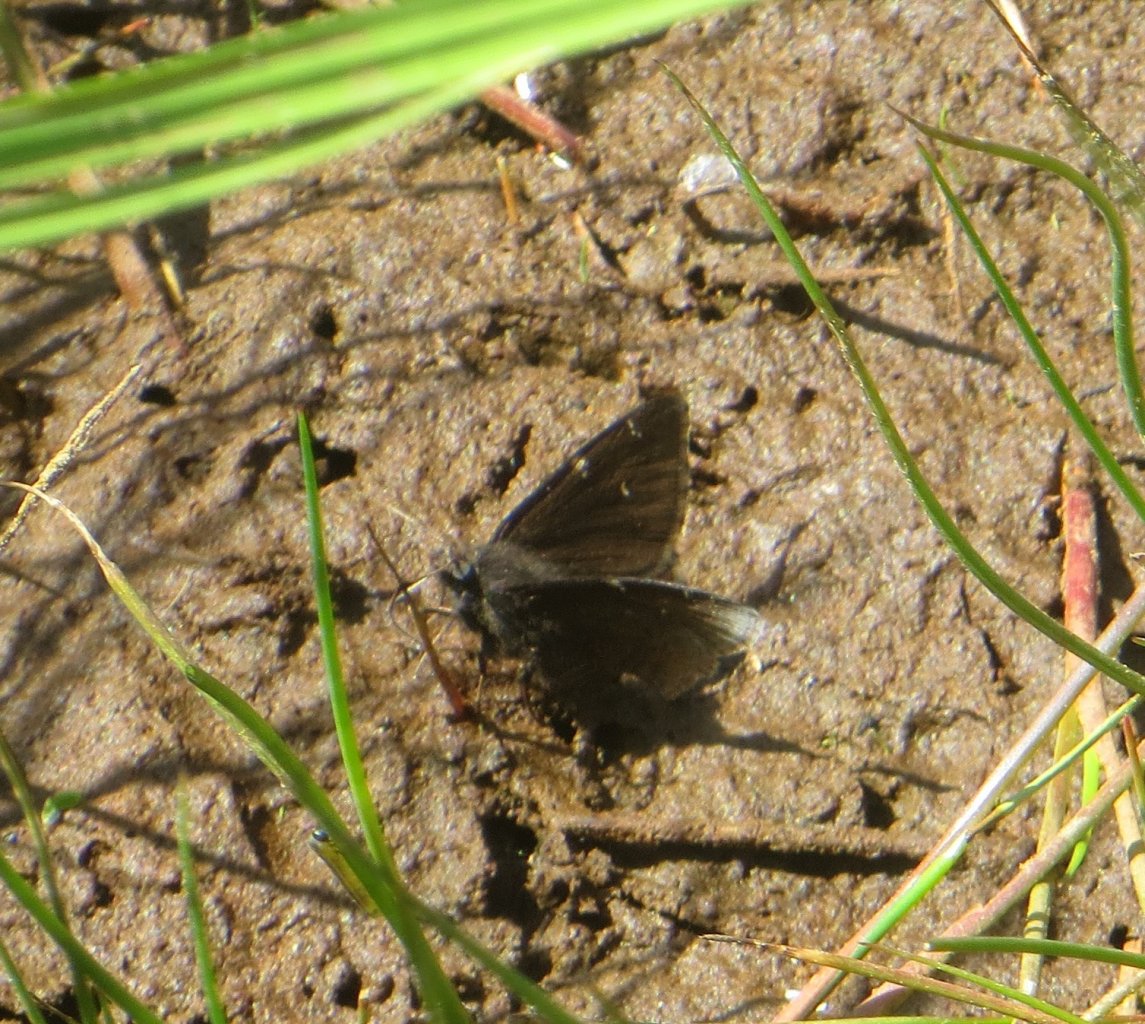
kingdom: Animalia
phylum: Arthropoda
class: Insecta
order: Lepidoptera
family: Hesperiidae
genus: Autochton
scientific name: Autochton
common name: Northern Cloudywing
